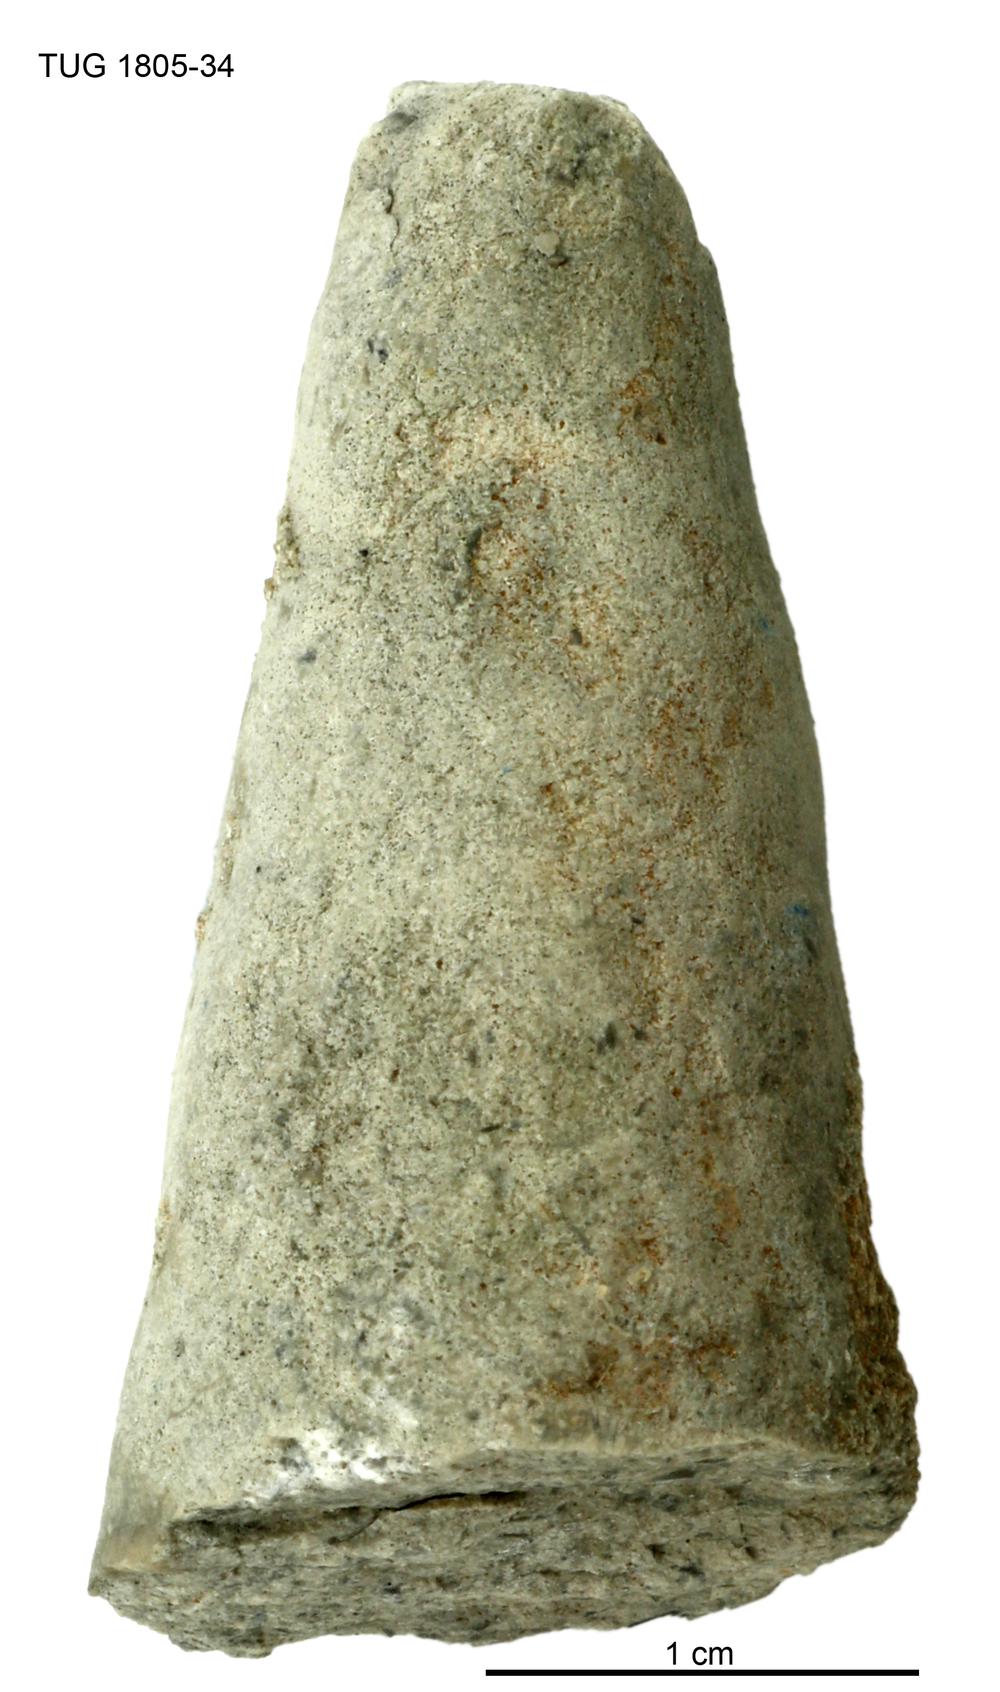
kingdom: Animalia
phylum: Mollusca
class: Gastropoda
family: Pollicinidae
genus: Pollicina
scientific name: Pollicina
